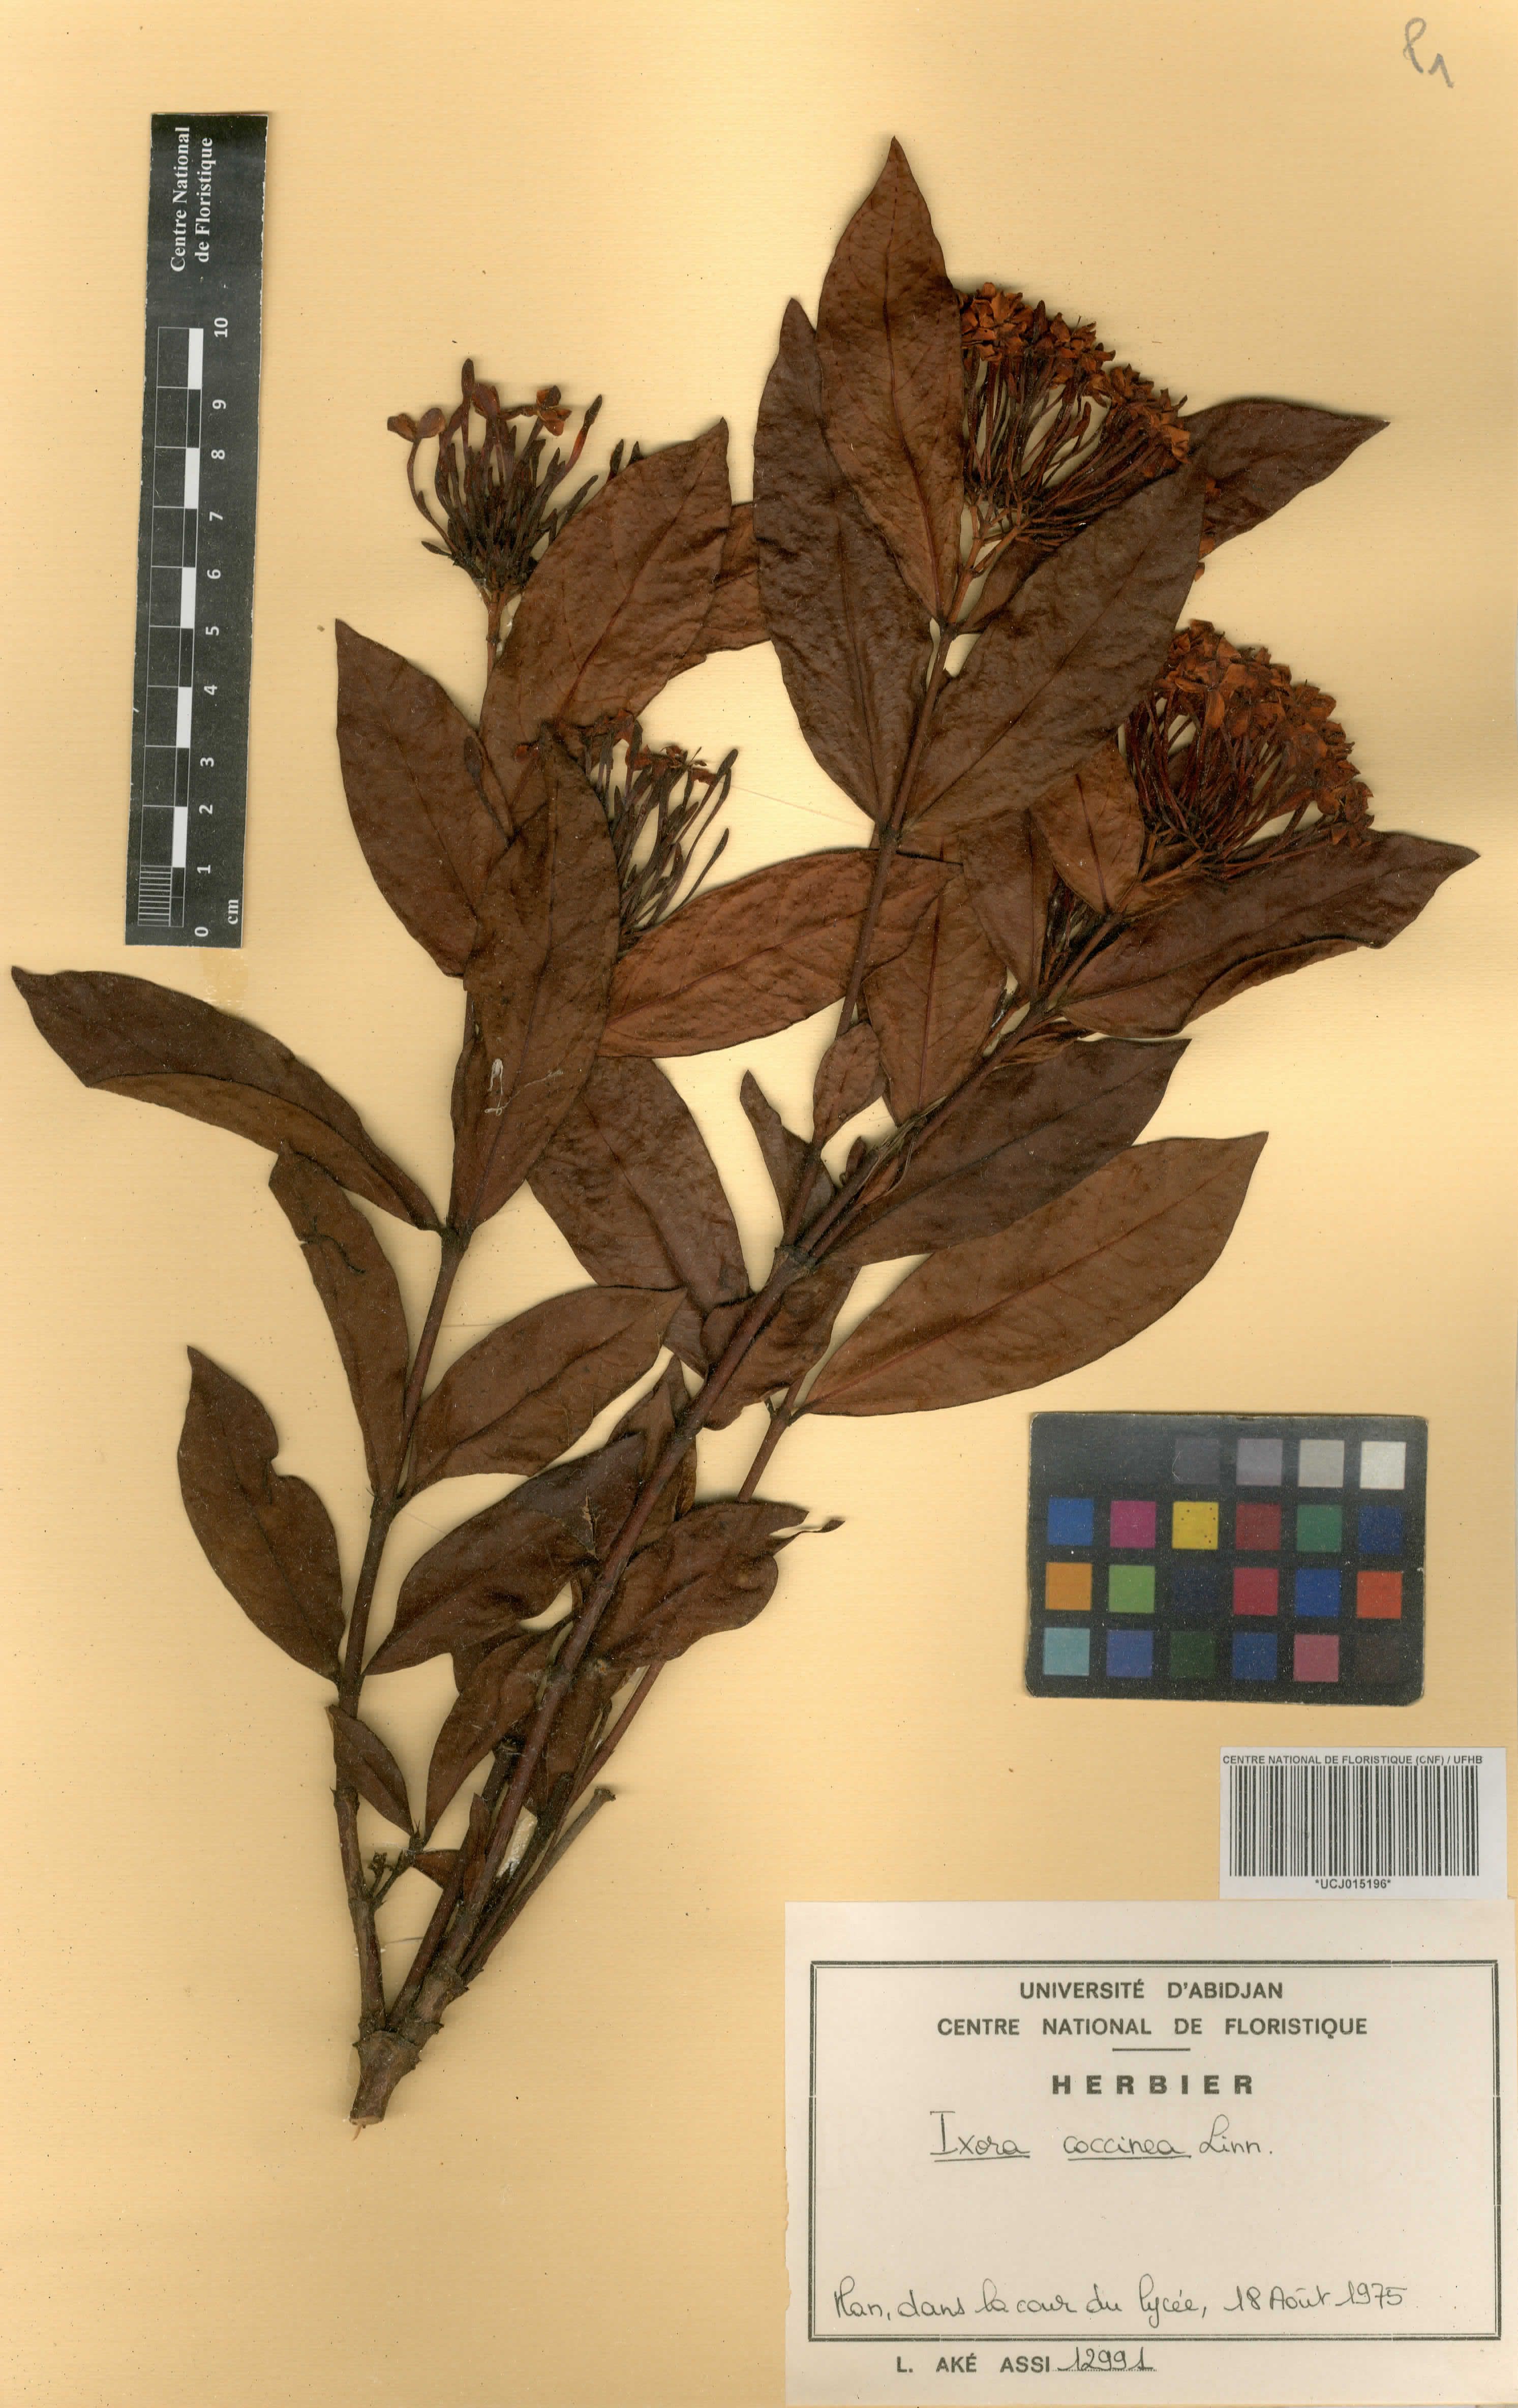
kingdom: Plantae
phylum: Tracheophyta
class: Magnoliopsida
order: Gentianales
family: Rubiaceae
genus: Ixora
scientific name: Ixora coccinea
